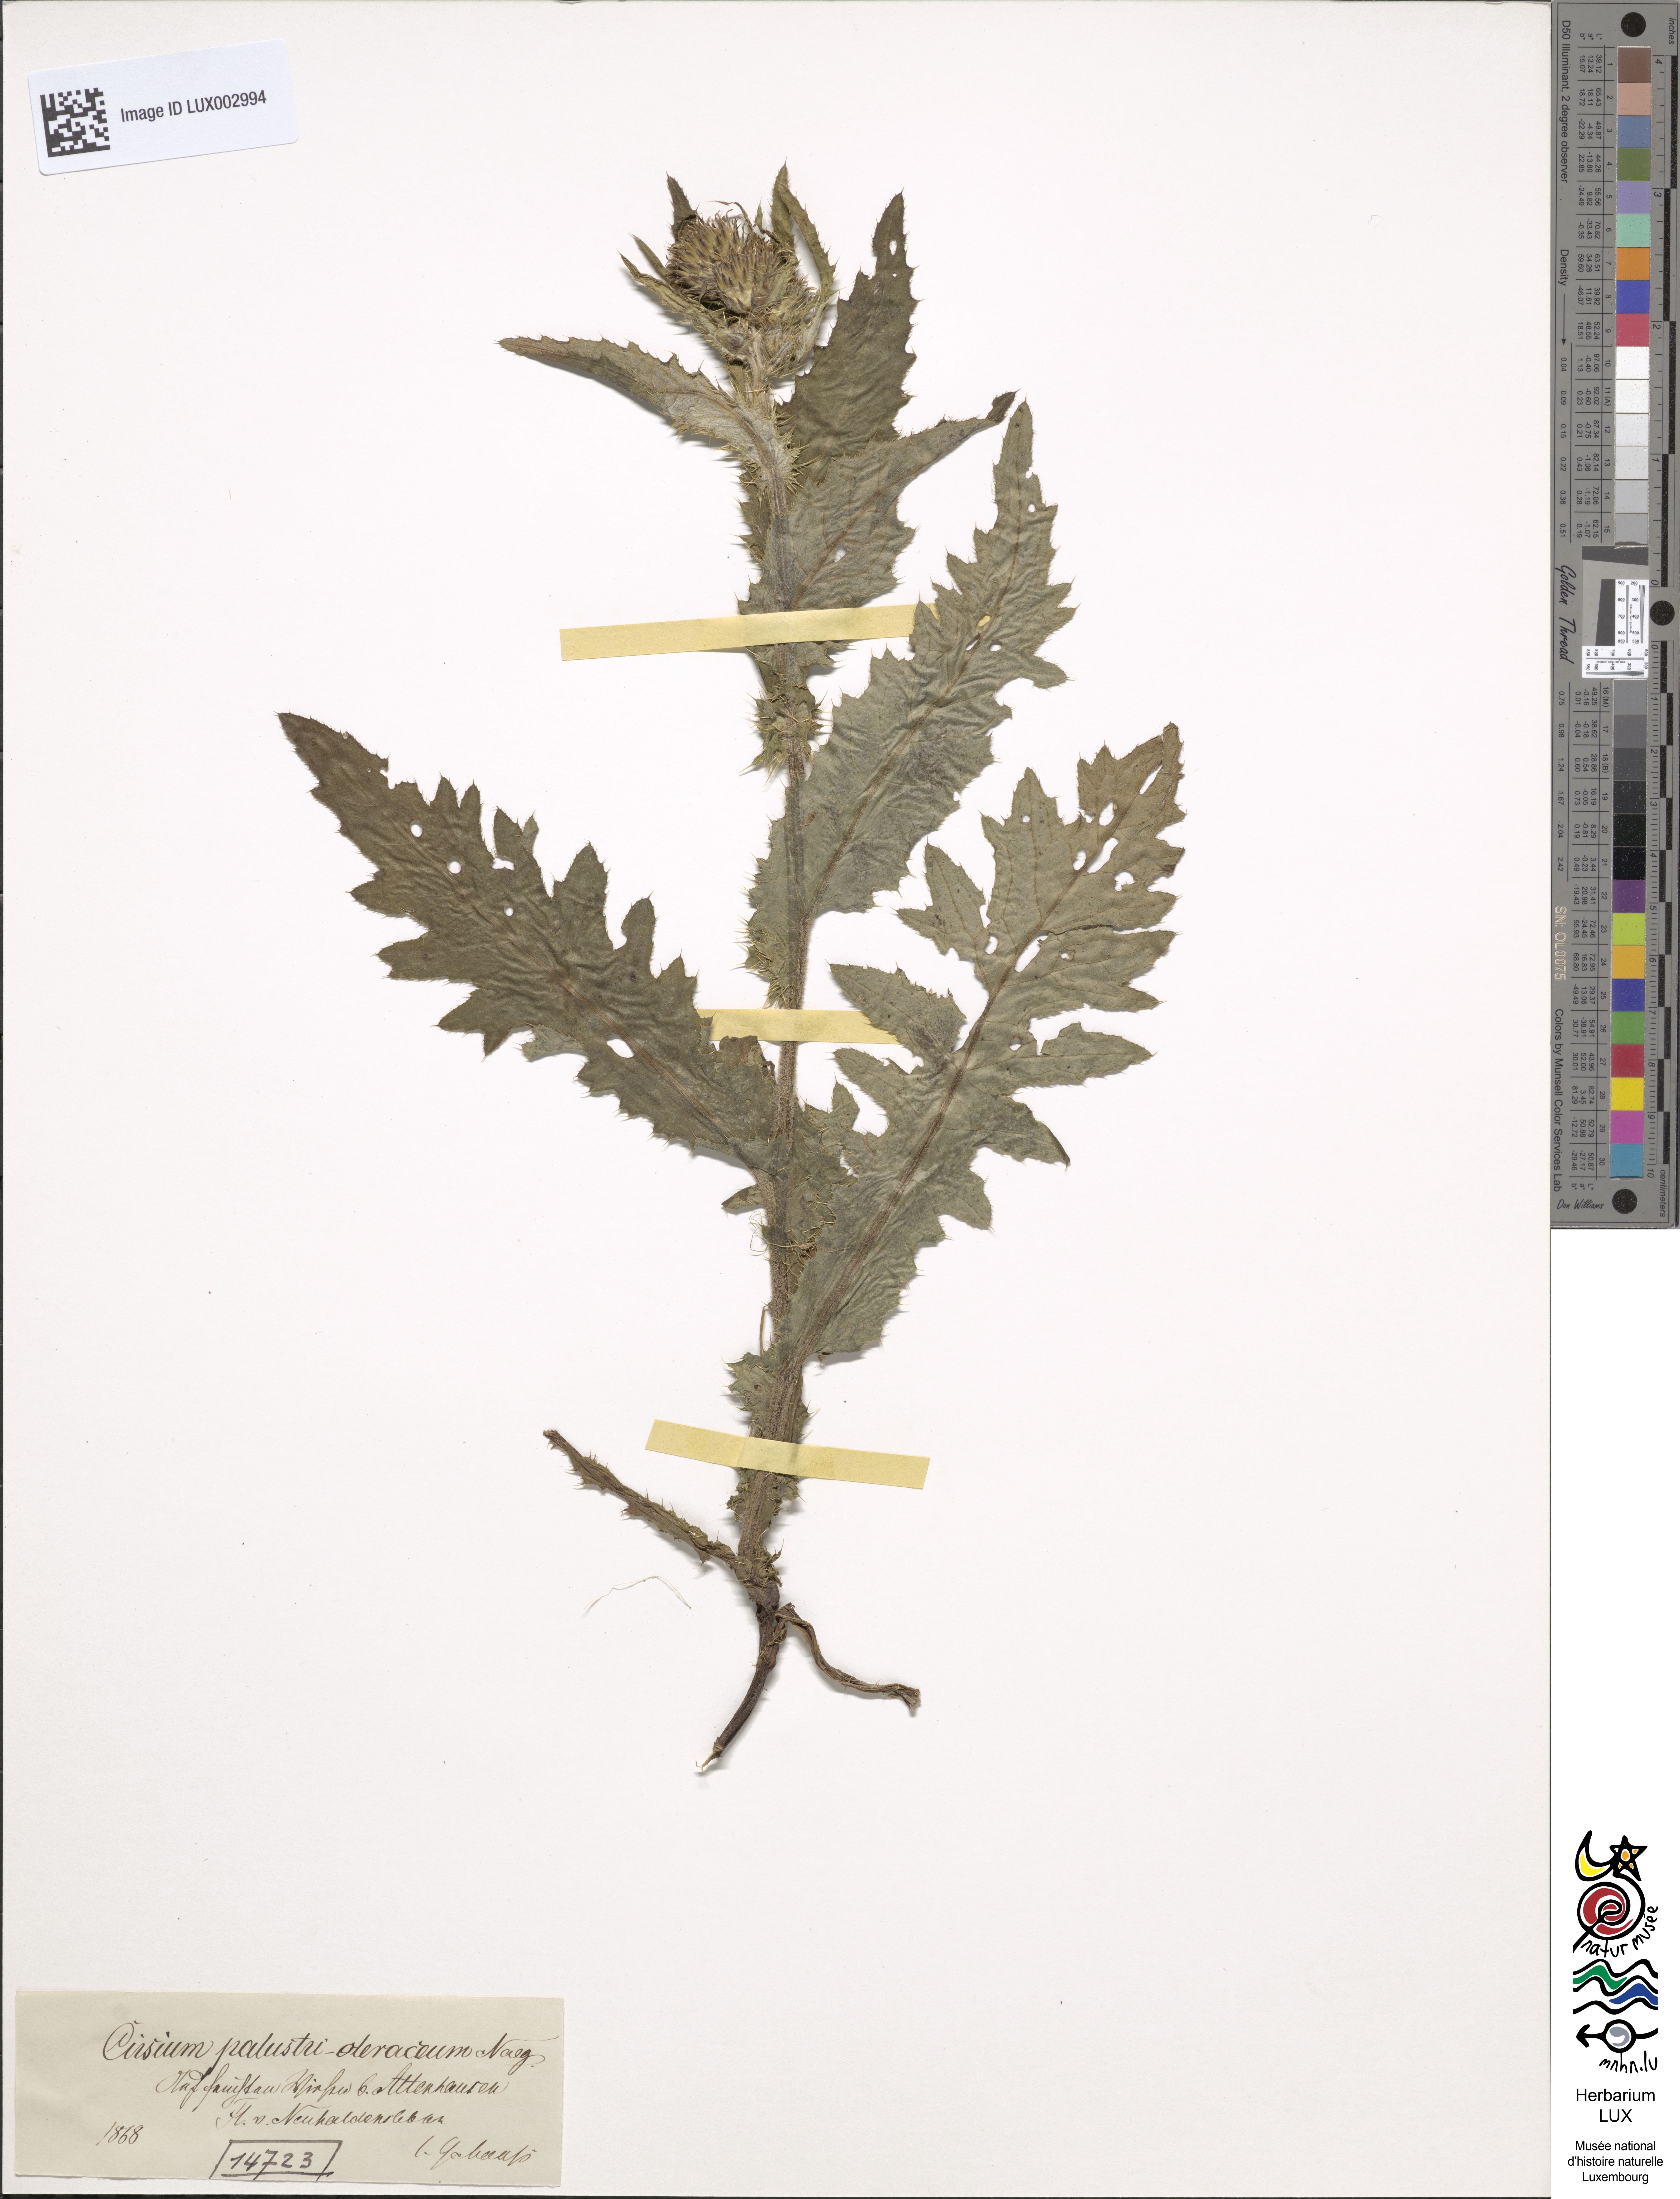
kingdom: Plantae
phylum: Tracheophyta
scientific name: Tracheophyta
